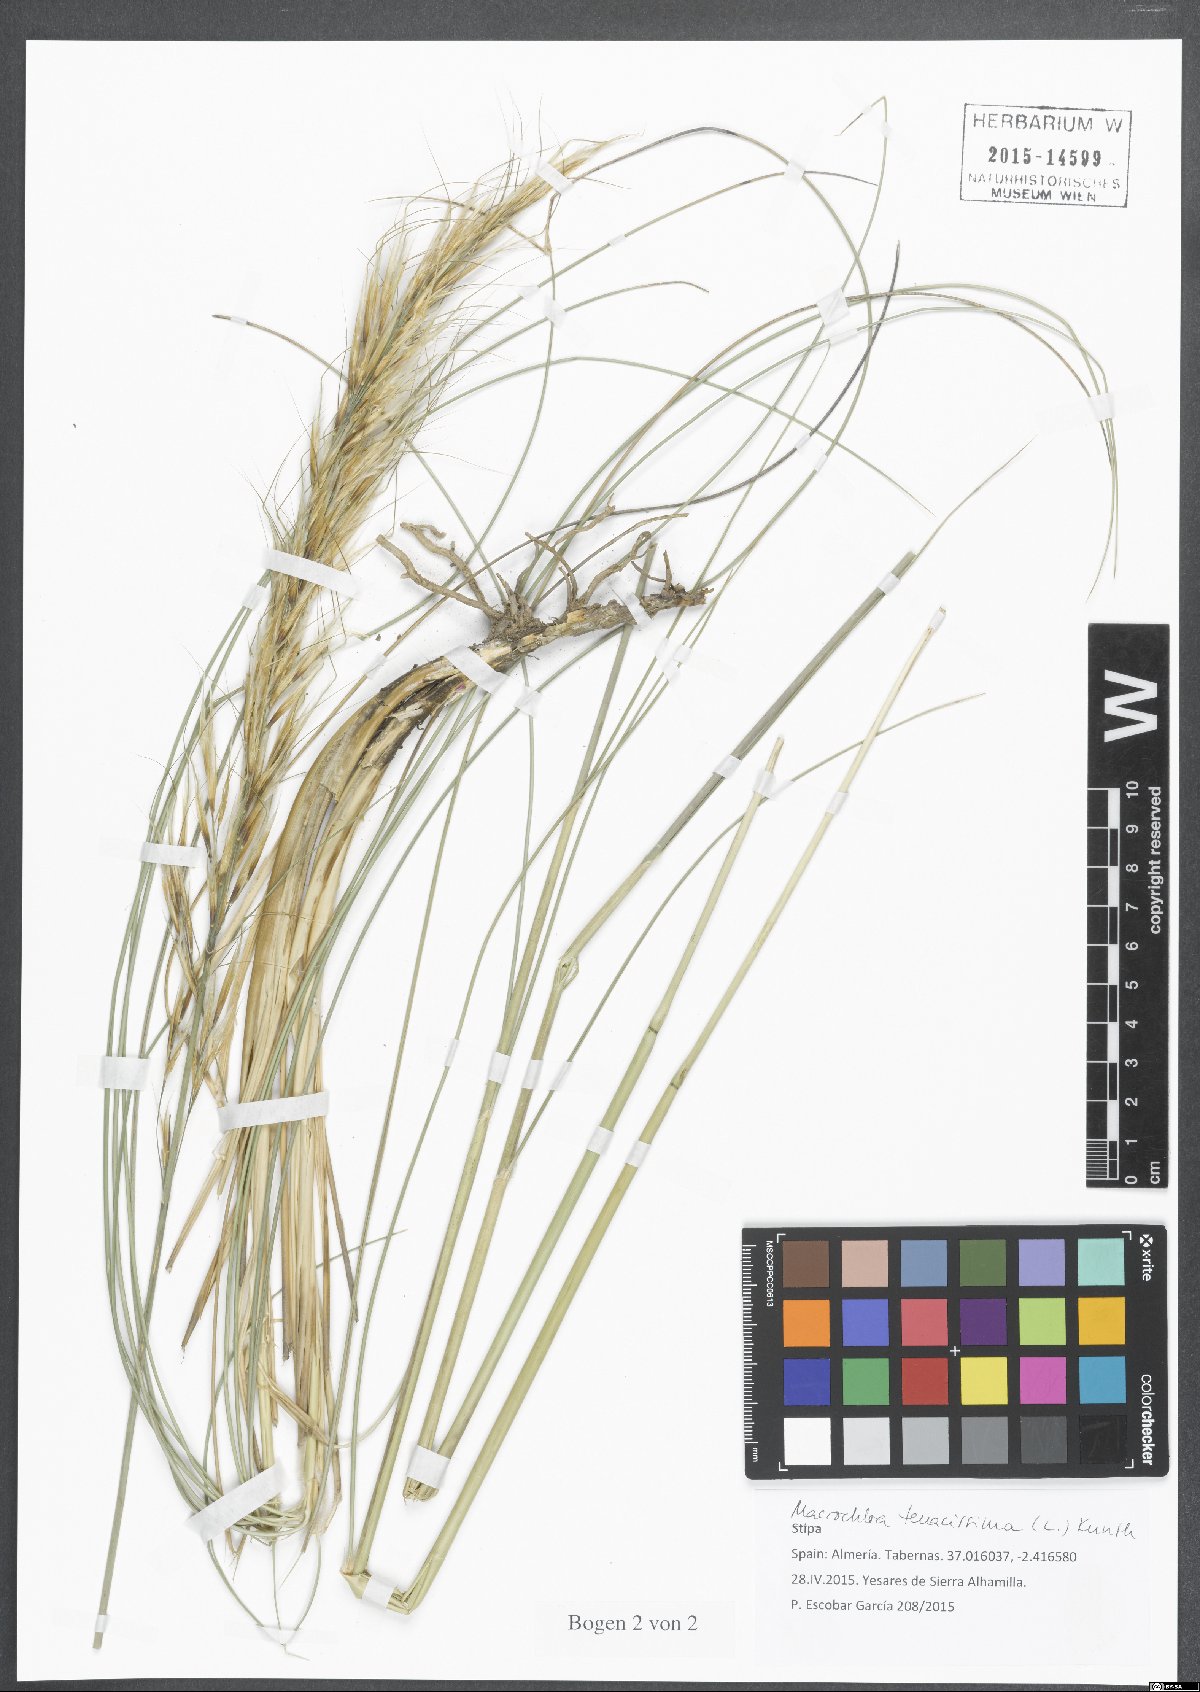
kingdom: Plantae
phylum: Tracheophyta
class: Liliopsida
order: Poales
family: Poaceae
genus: Macrochloa
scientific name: Macrochloa tenacissima
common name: Alfa grass
